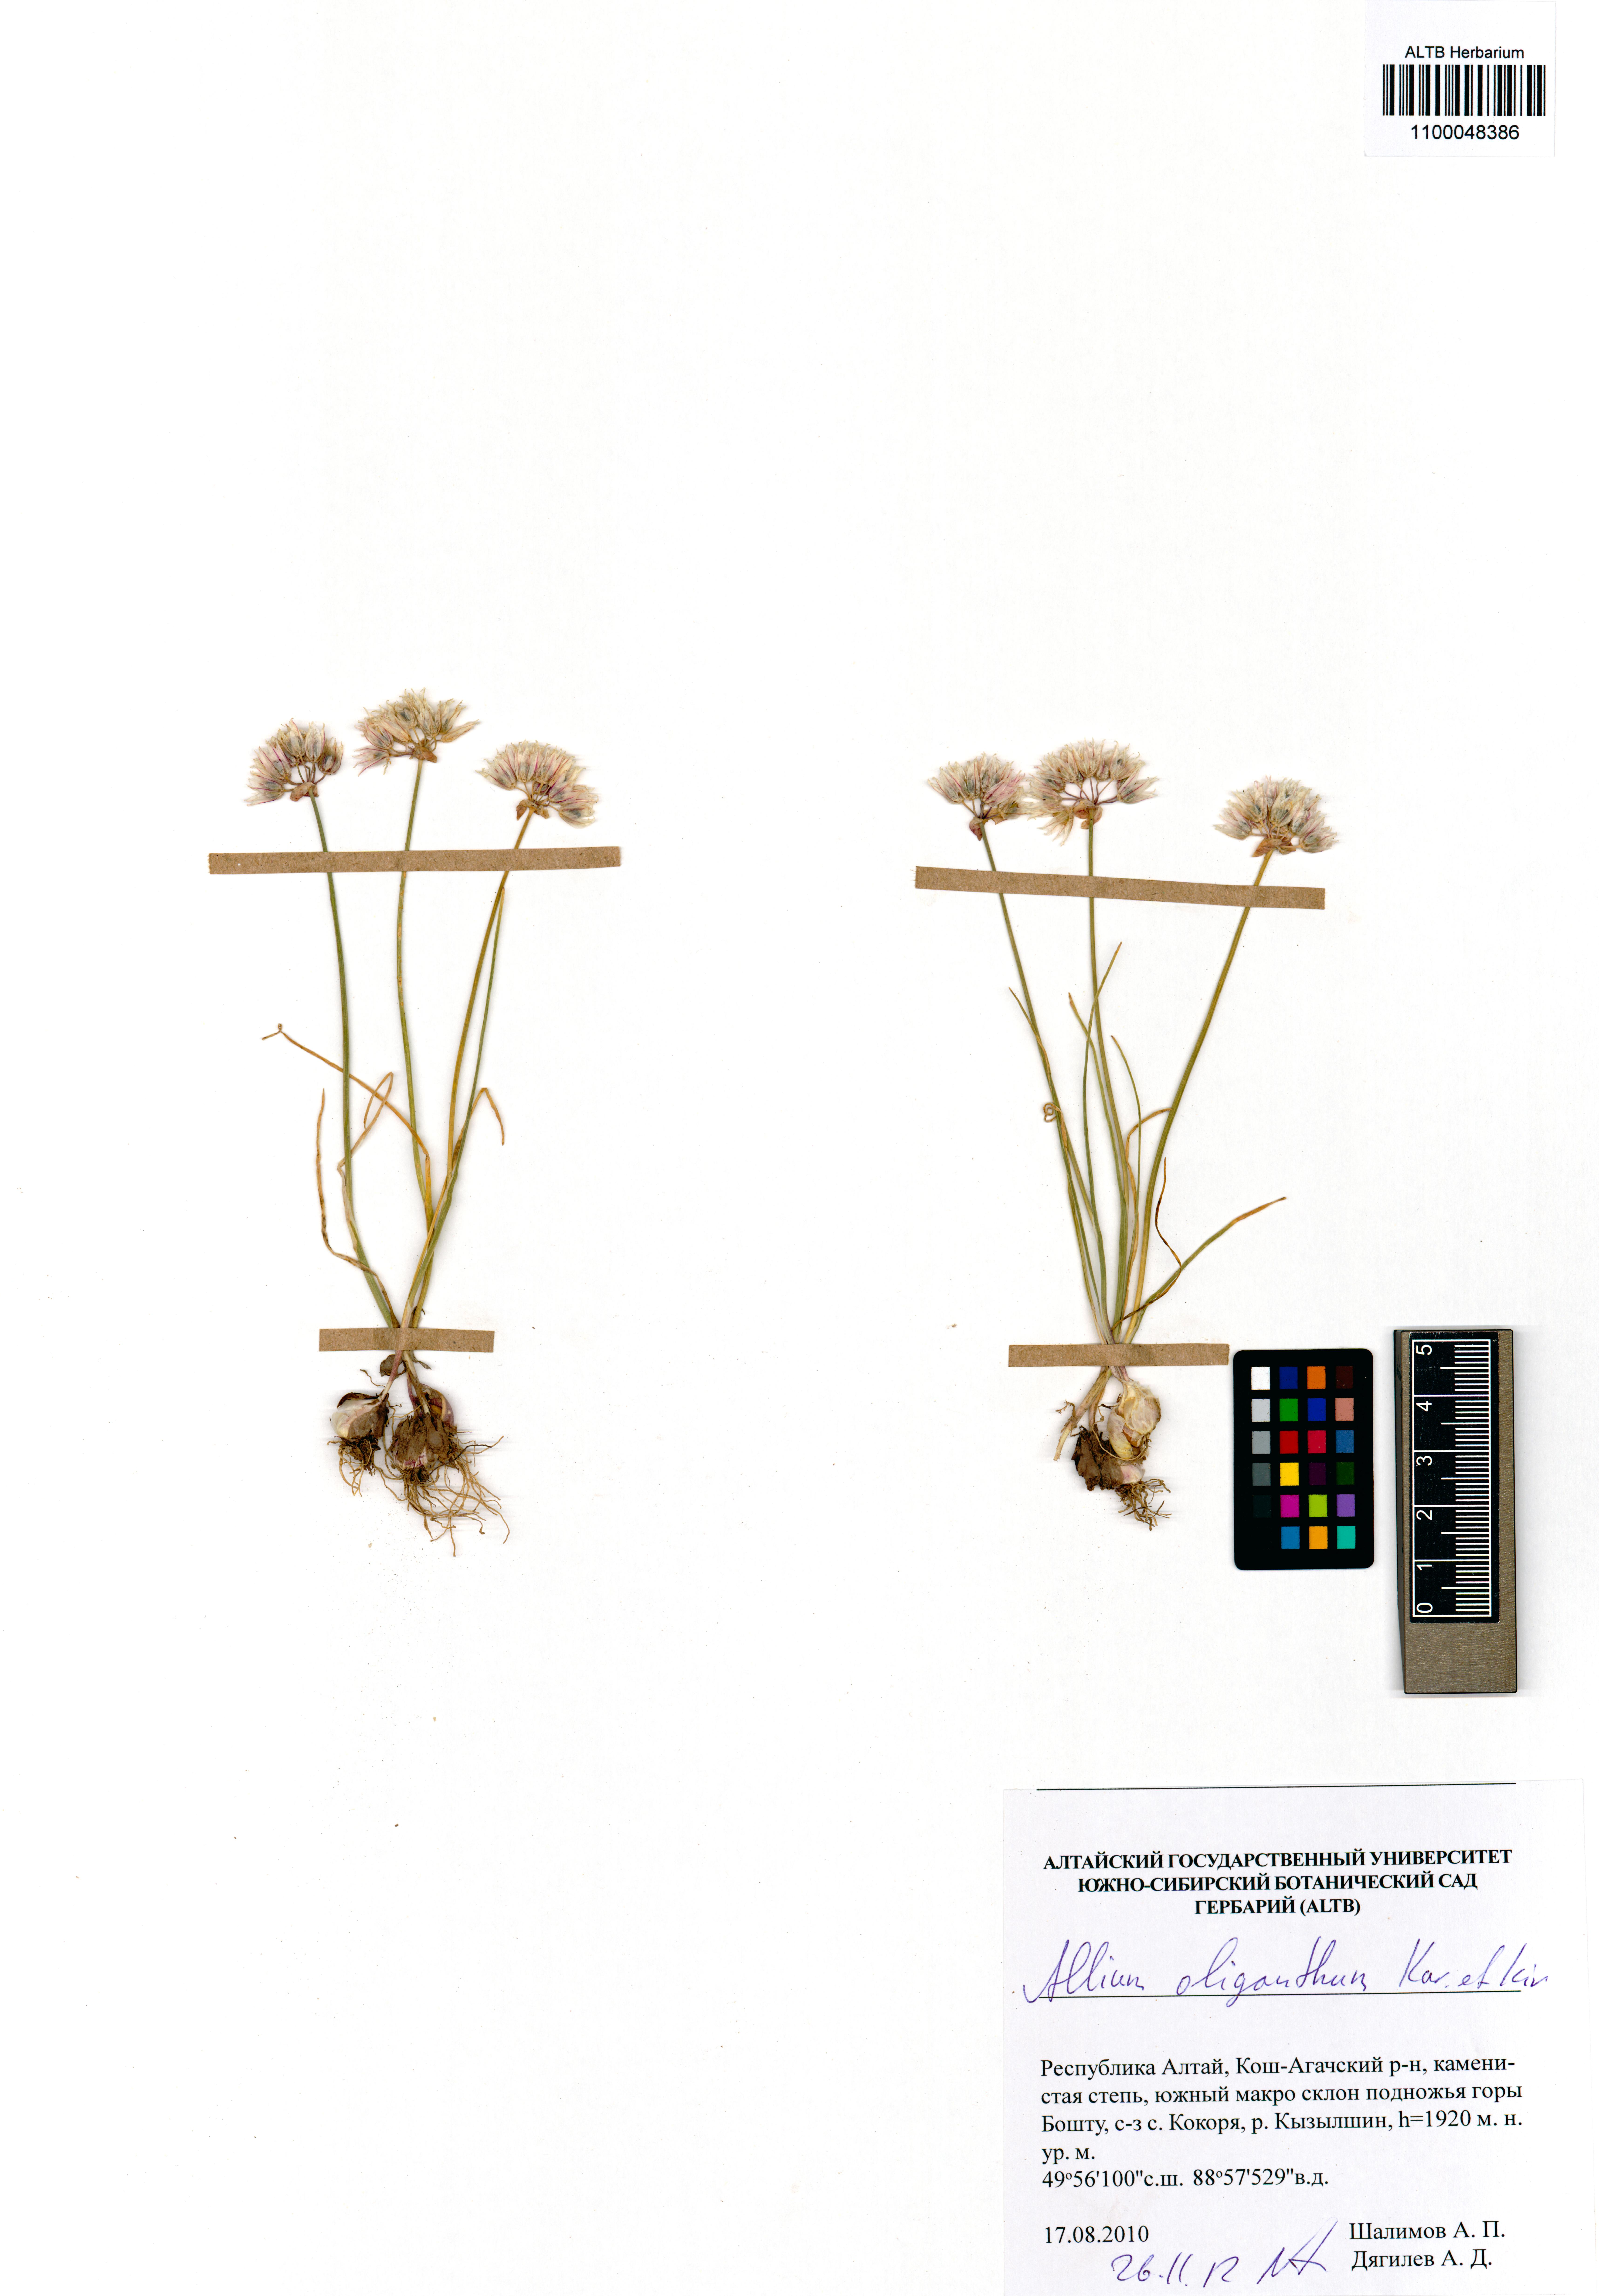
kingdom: Plantae
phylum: Tracheophyta
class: Liliopsida
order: Asparagales
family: Amaryllidaceae
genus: Allium
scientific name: Allium oliganthum
